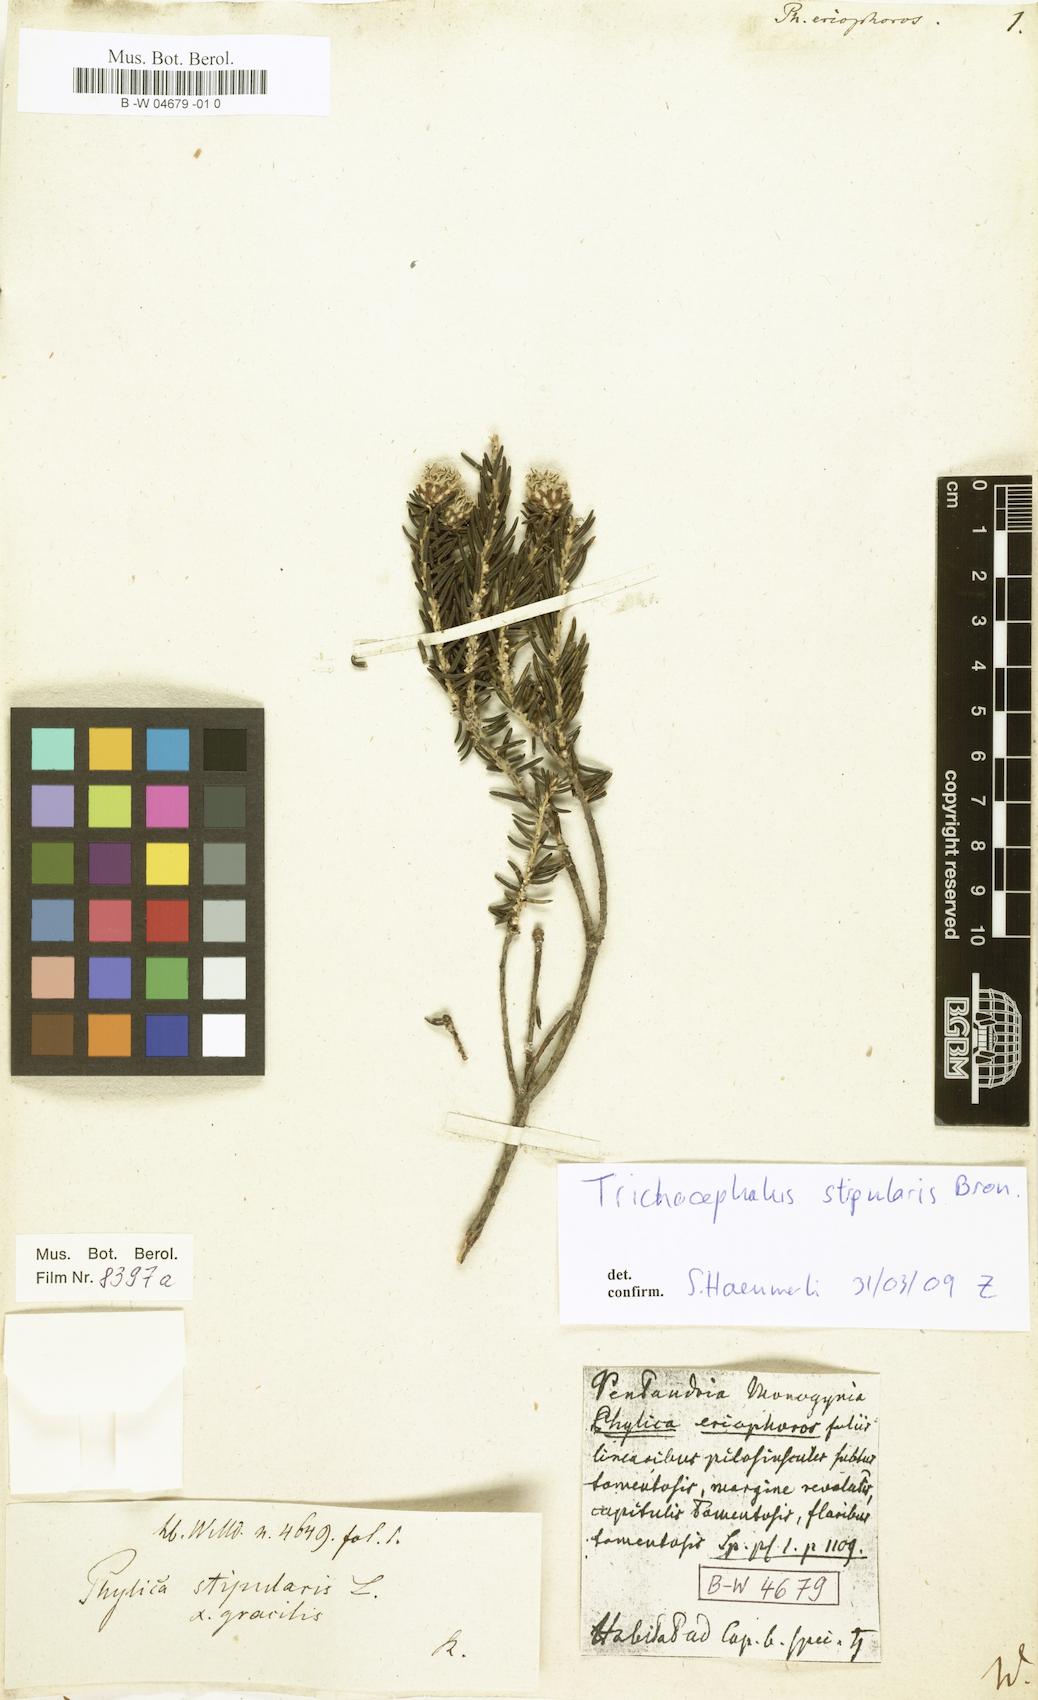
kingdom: Plantae
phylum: Tracheophyta
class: Magnoliopsida
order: Rosales
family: Rhamnaceae
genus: Phylica
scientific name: Phylica imberbis
